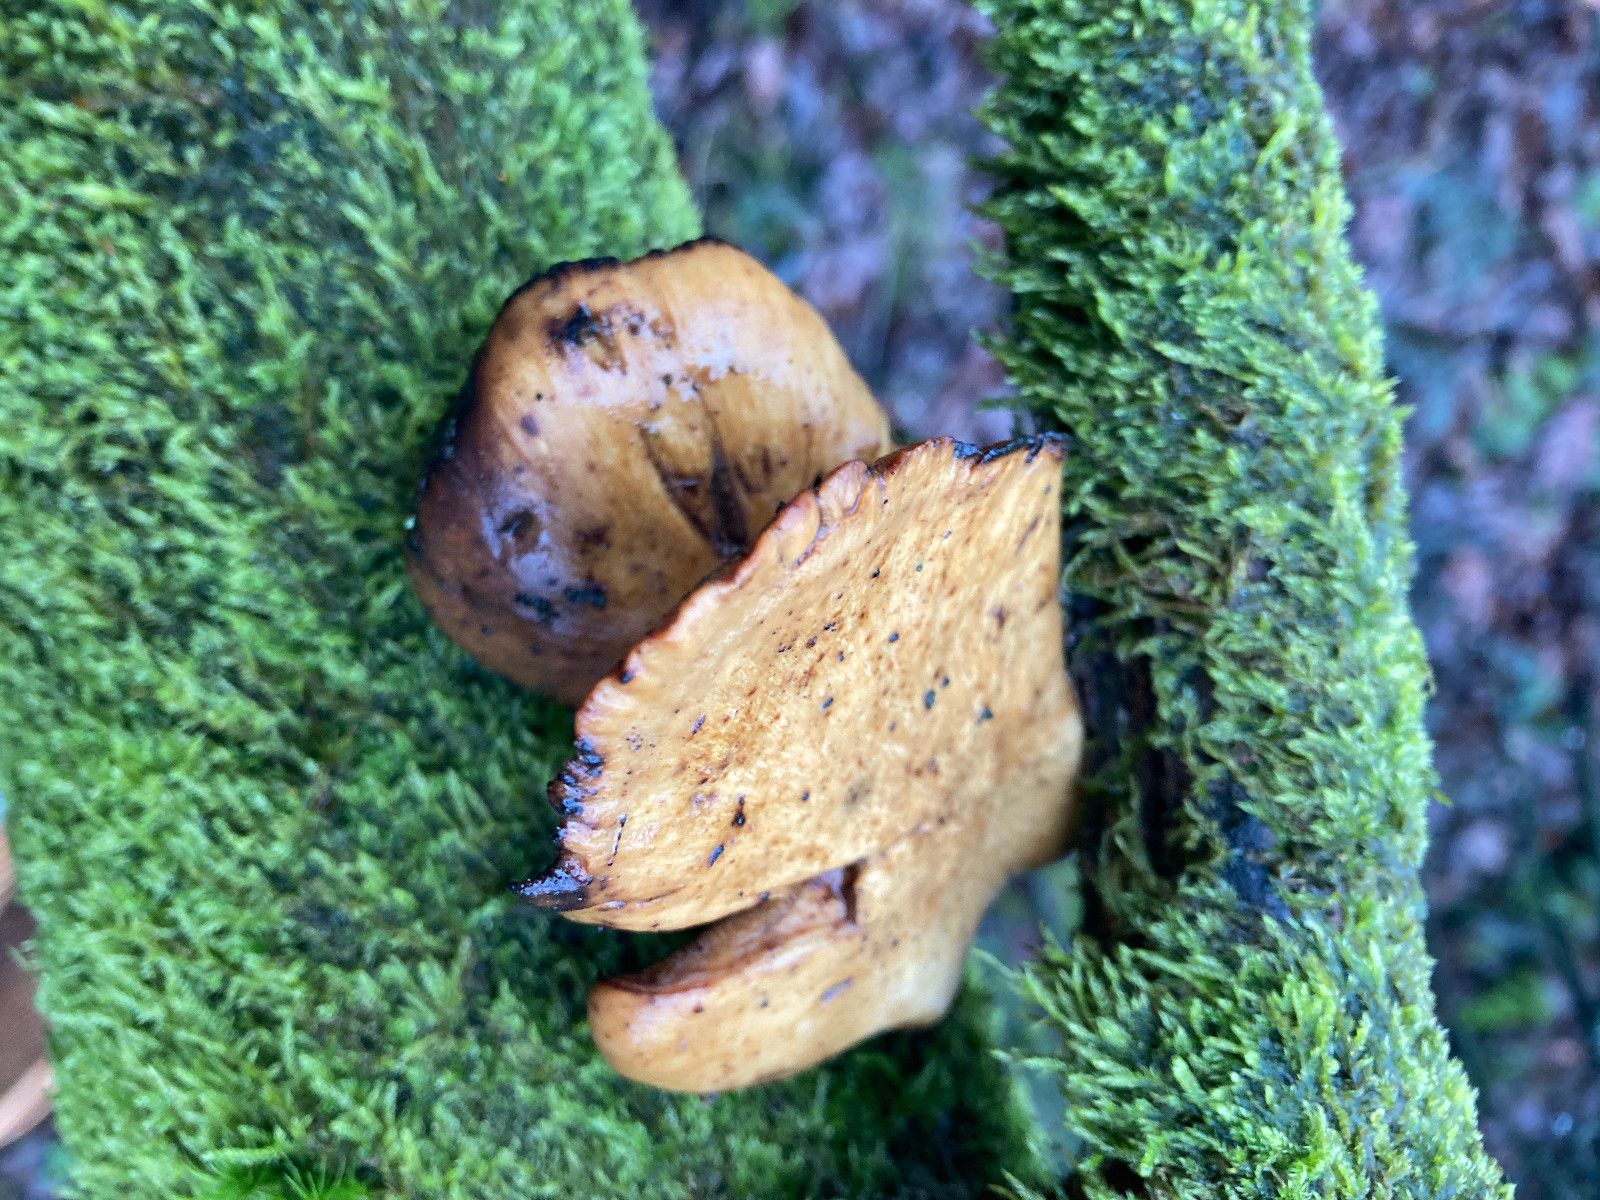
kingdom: Fungi
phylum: Basidiomycota
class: Agaricomycetes
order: Polyporales
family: Polyporaceae
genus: Cerioporus
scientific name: Cerioporus varius
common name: foranderlig stilkporesvamp
